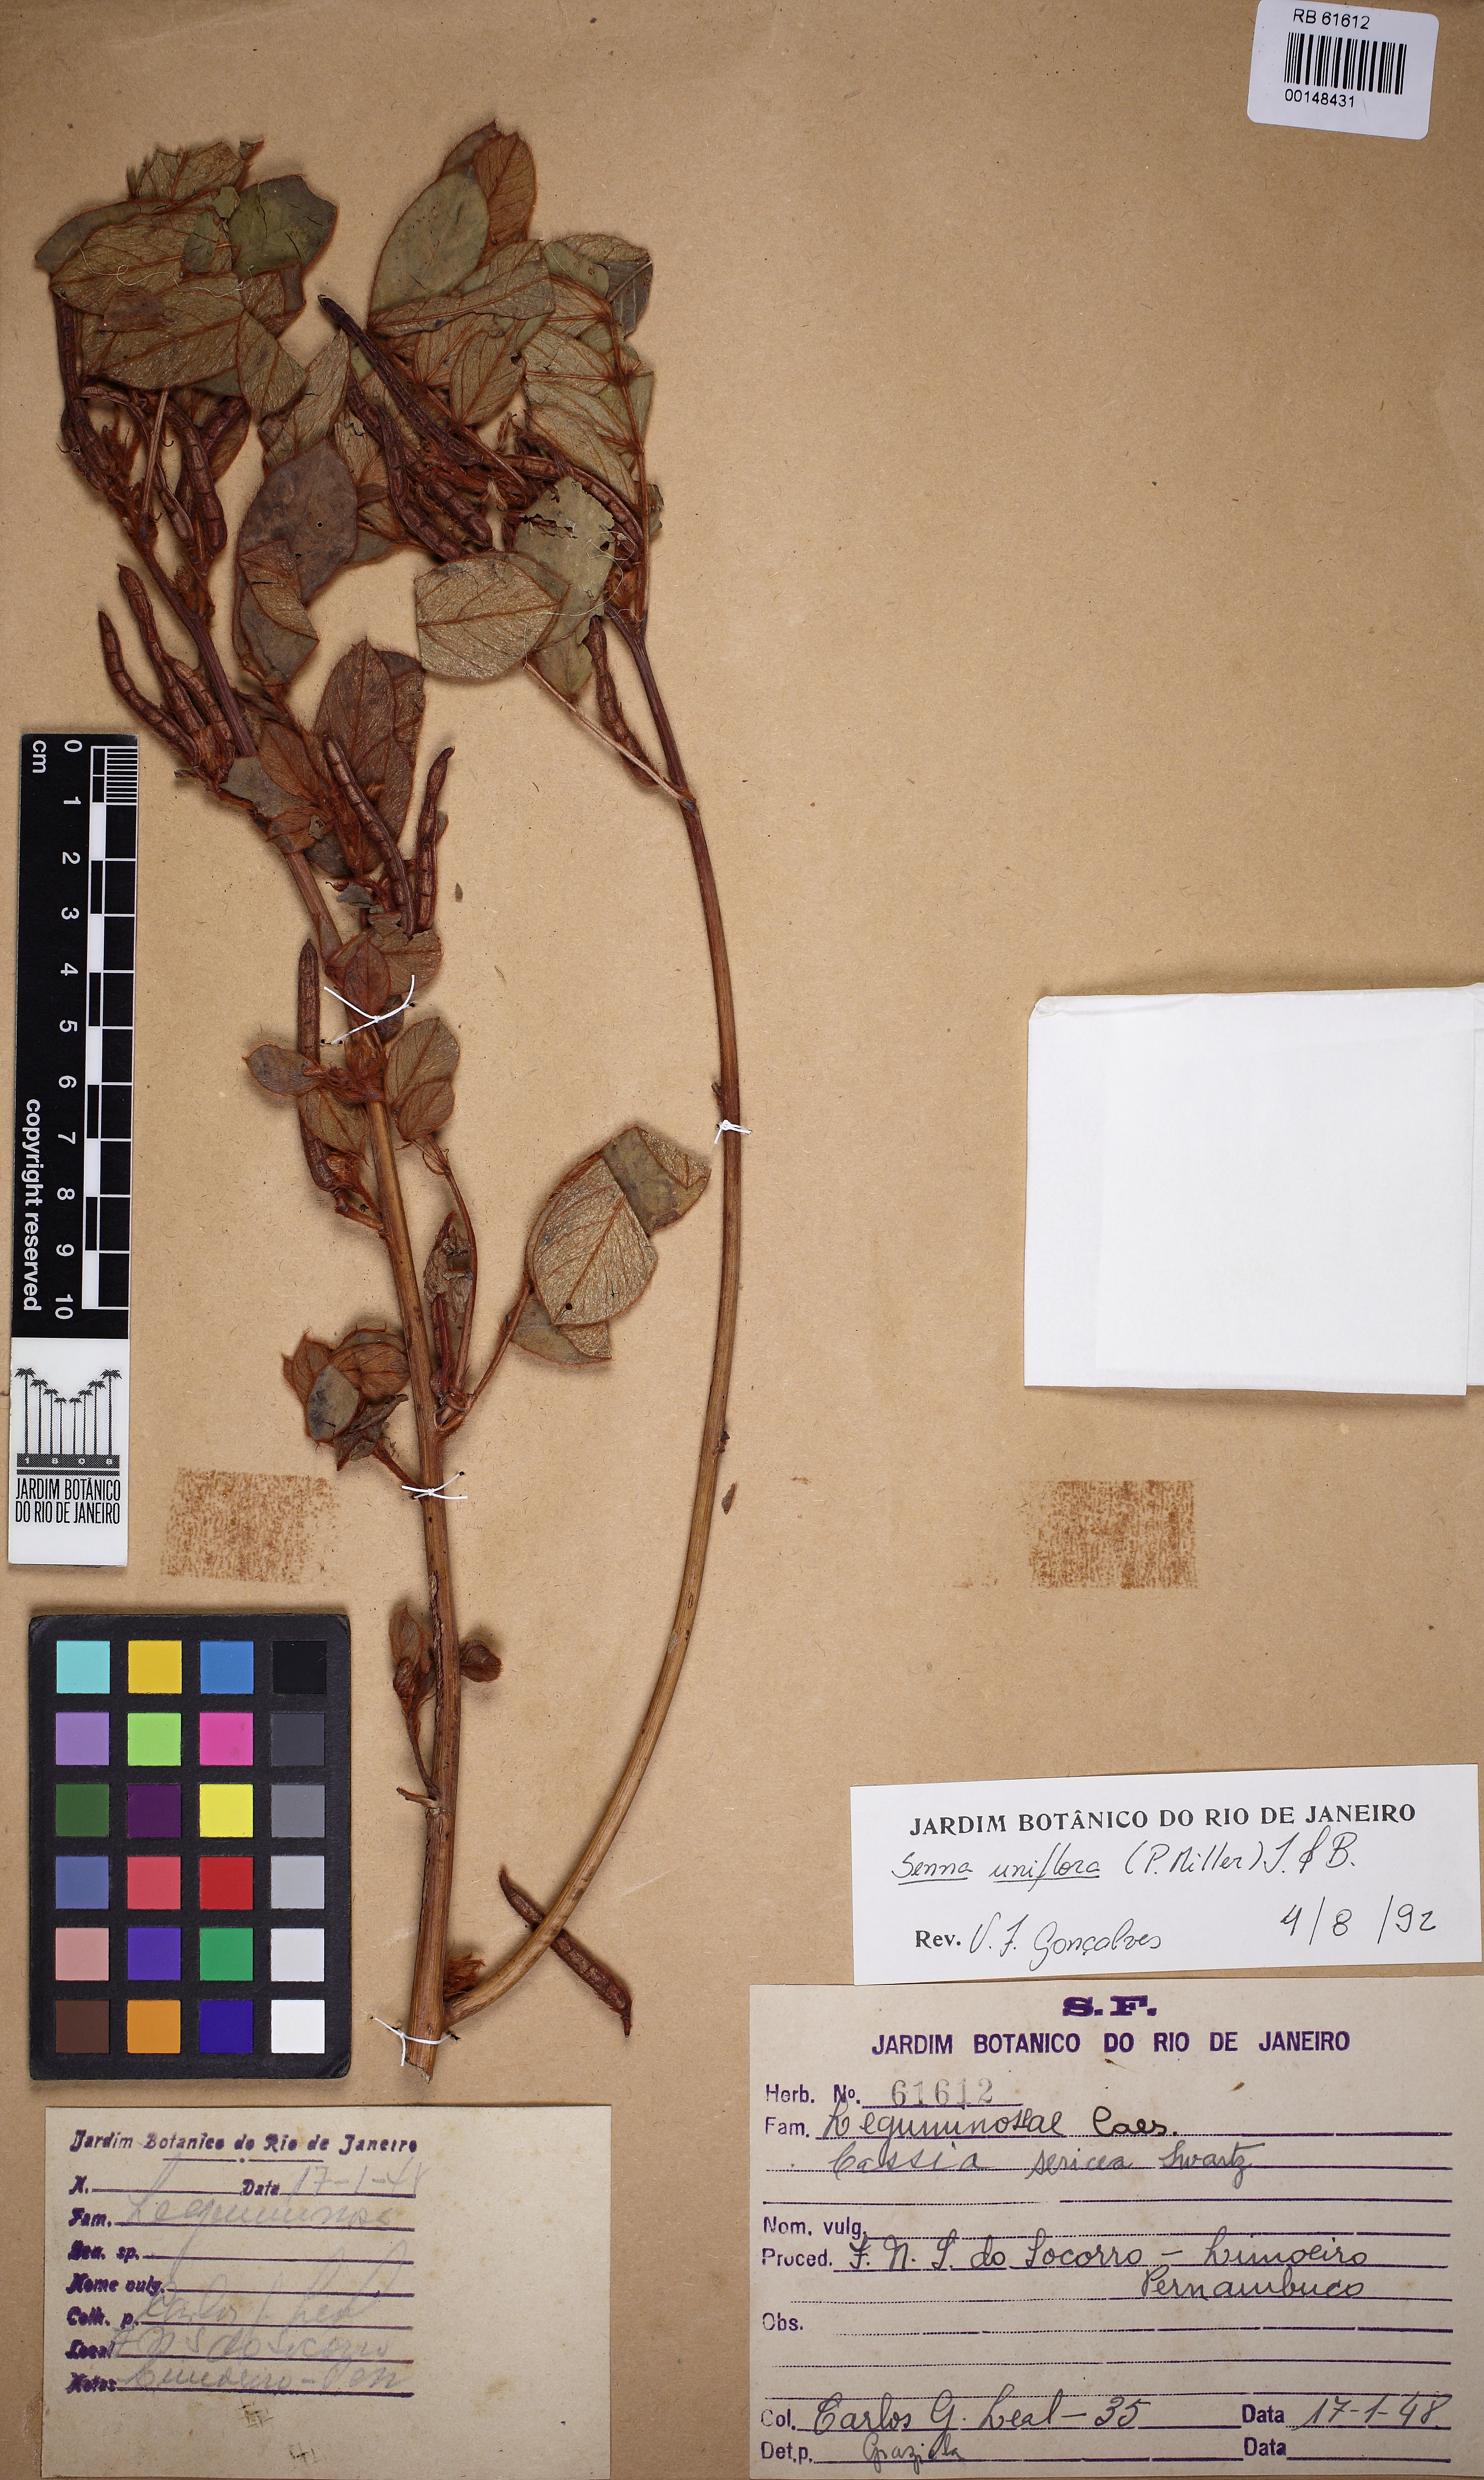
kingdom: Plantae
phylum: Tracheophyta
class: Magnoliopsida
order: Fabales
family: Fabaceae
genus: Senna
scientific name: Senna uniflora
